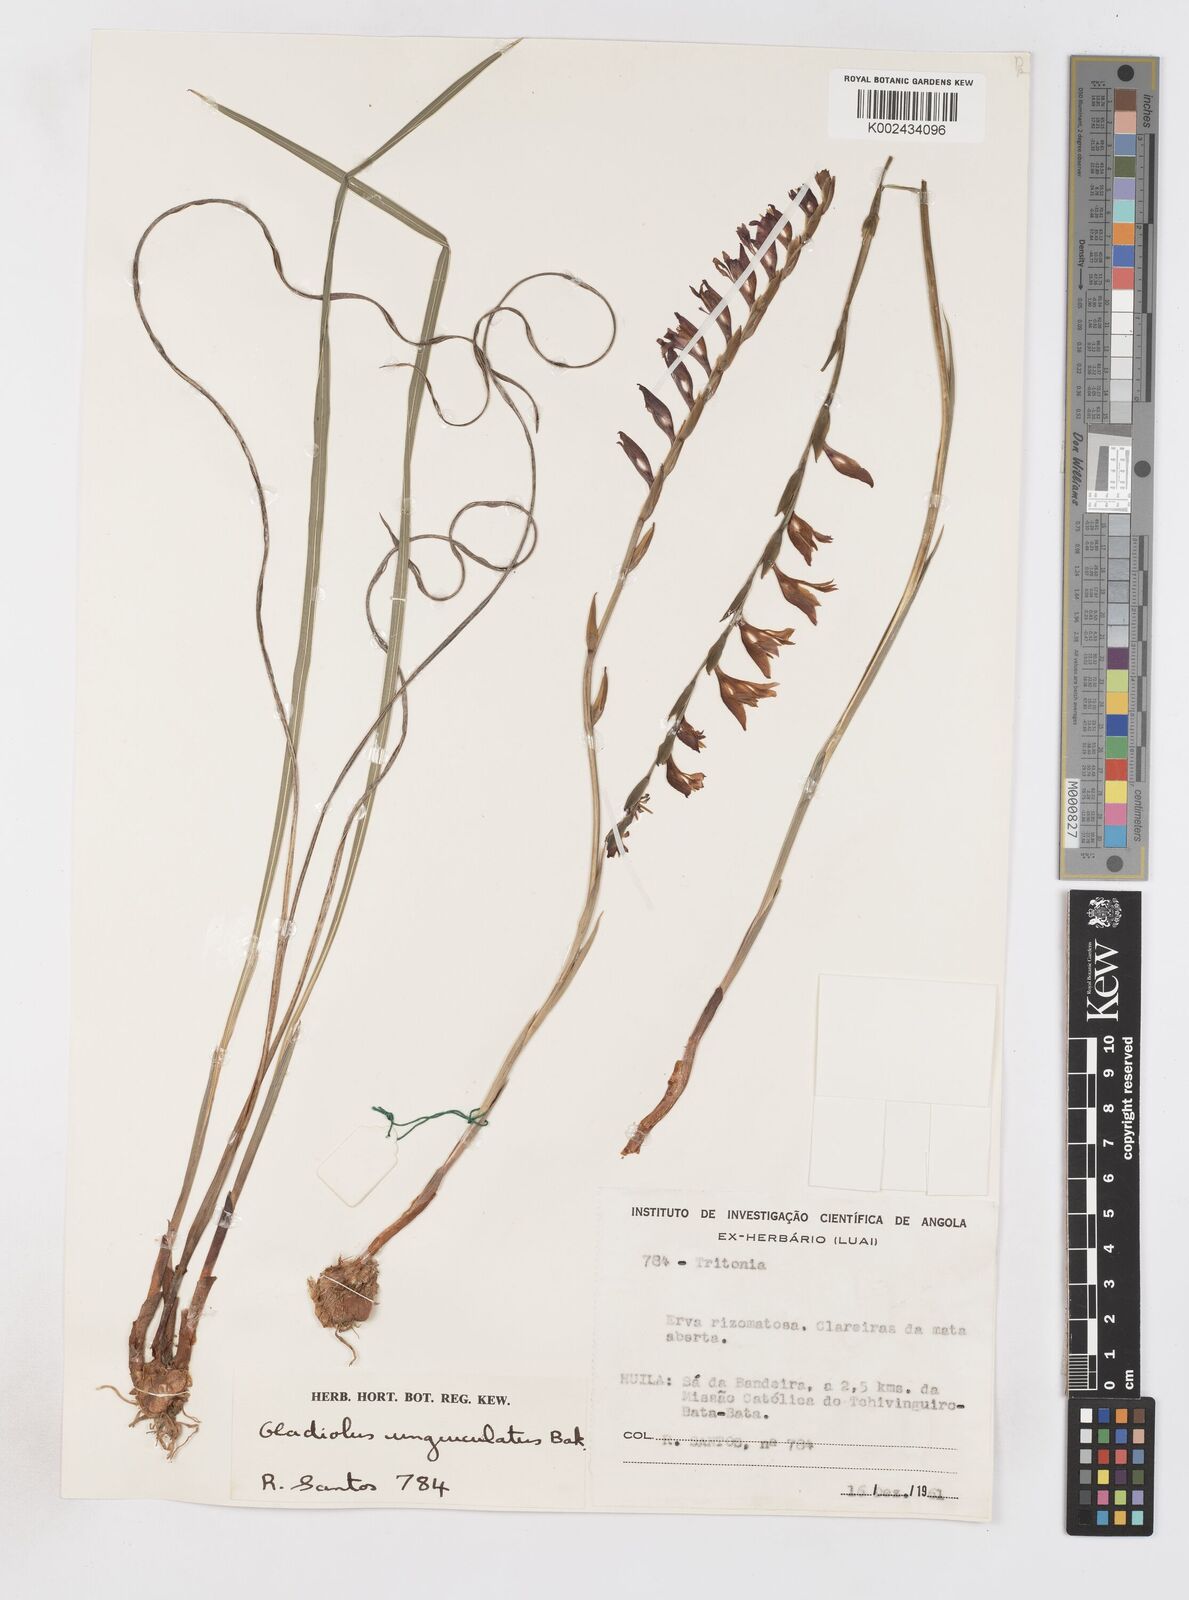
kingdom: Plantae
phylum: Tracheophyta
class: Liliopsida
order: Asparagales
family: Iridaceae
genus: Gladiolus
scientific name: Gladiolus atropurpureus
